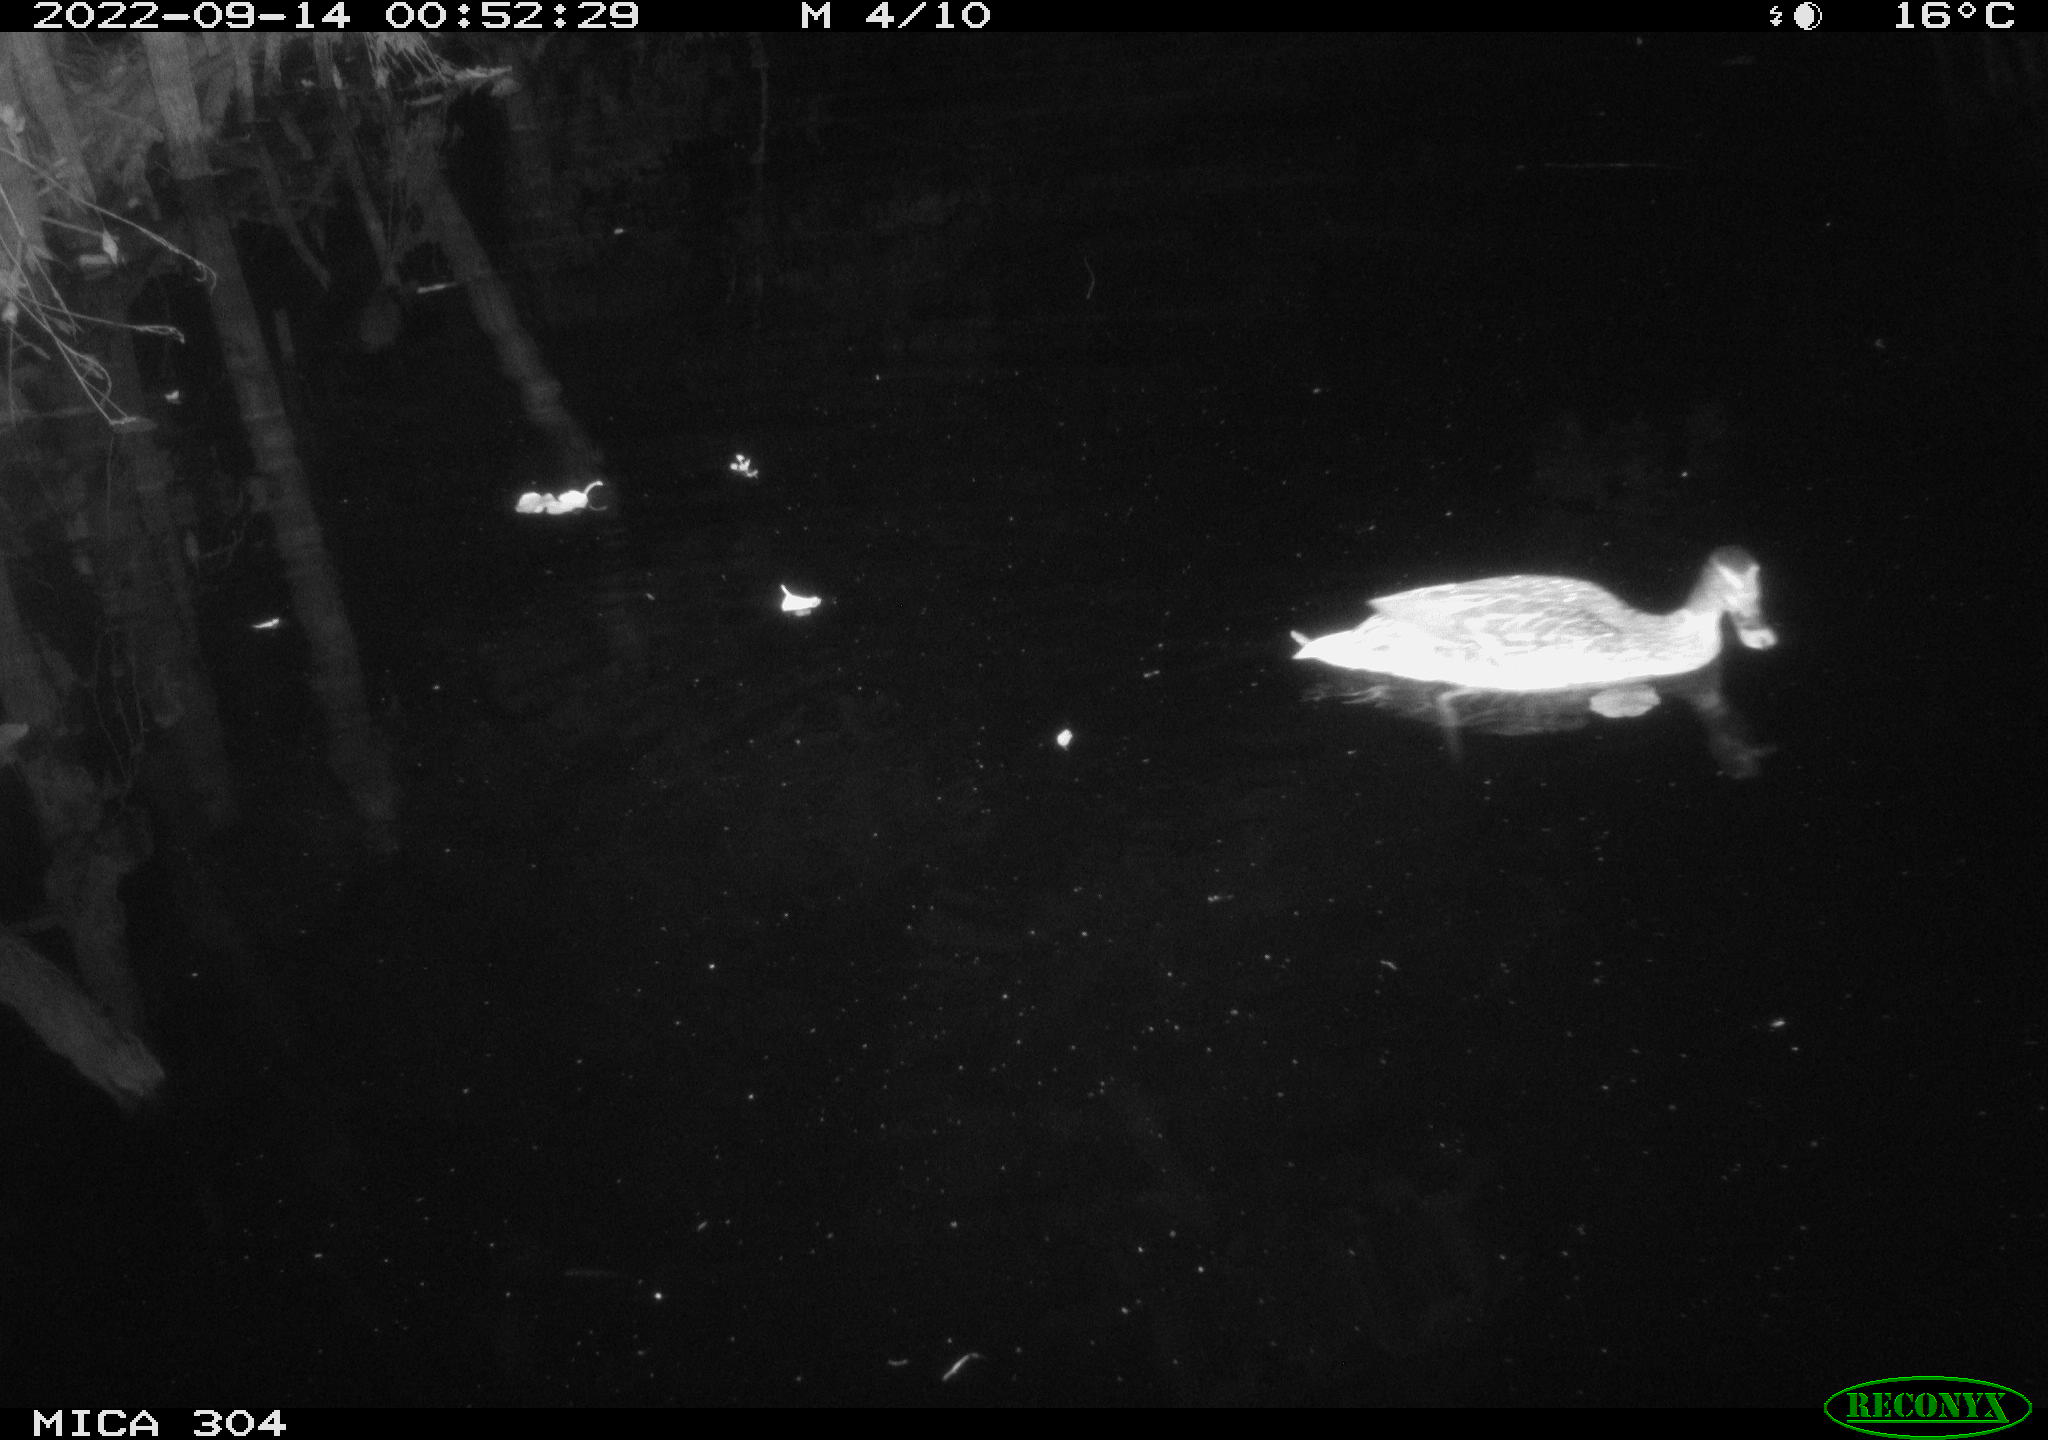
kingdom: Animalia
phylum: Chordata
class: Aves
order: Anseriformes
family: Anatidae
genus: Anas
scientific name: Anas
